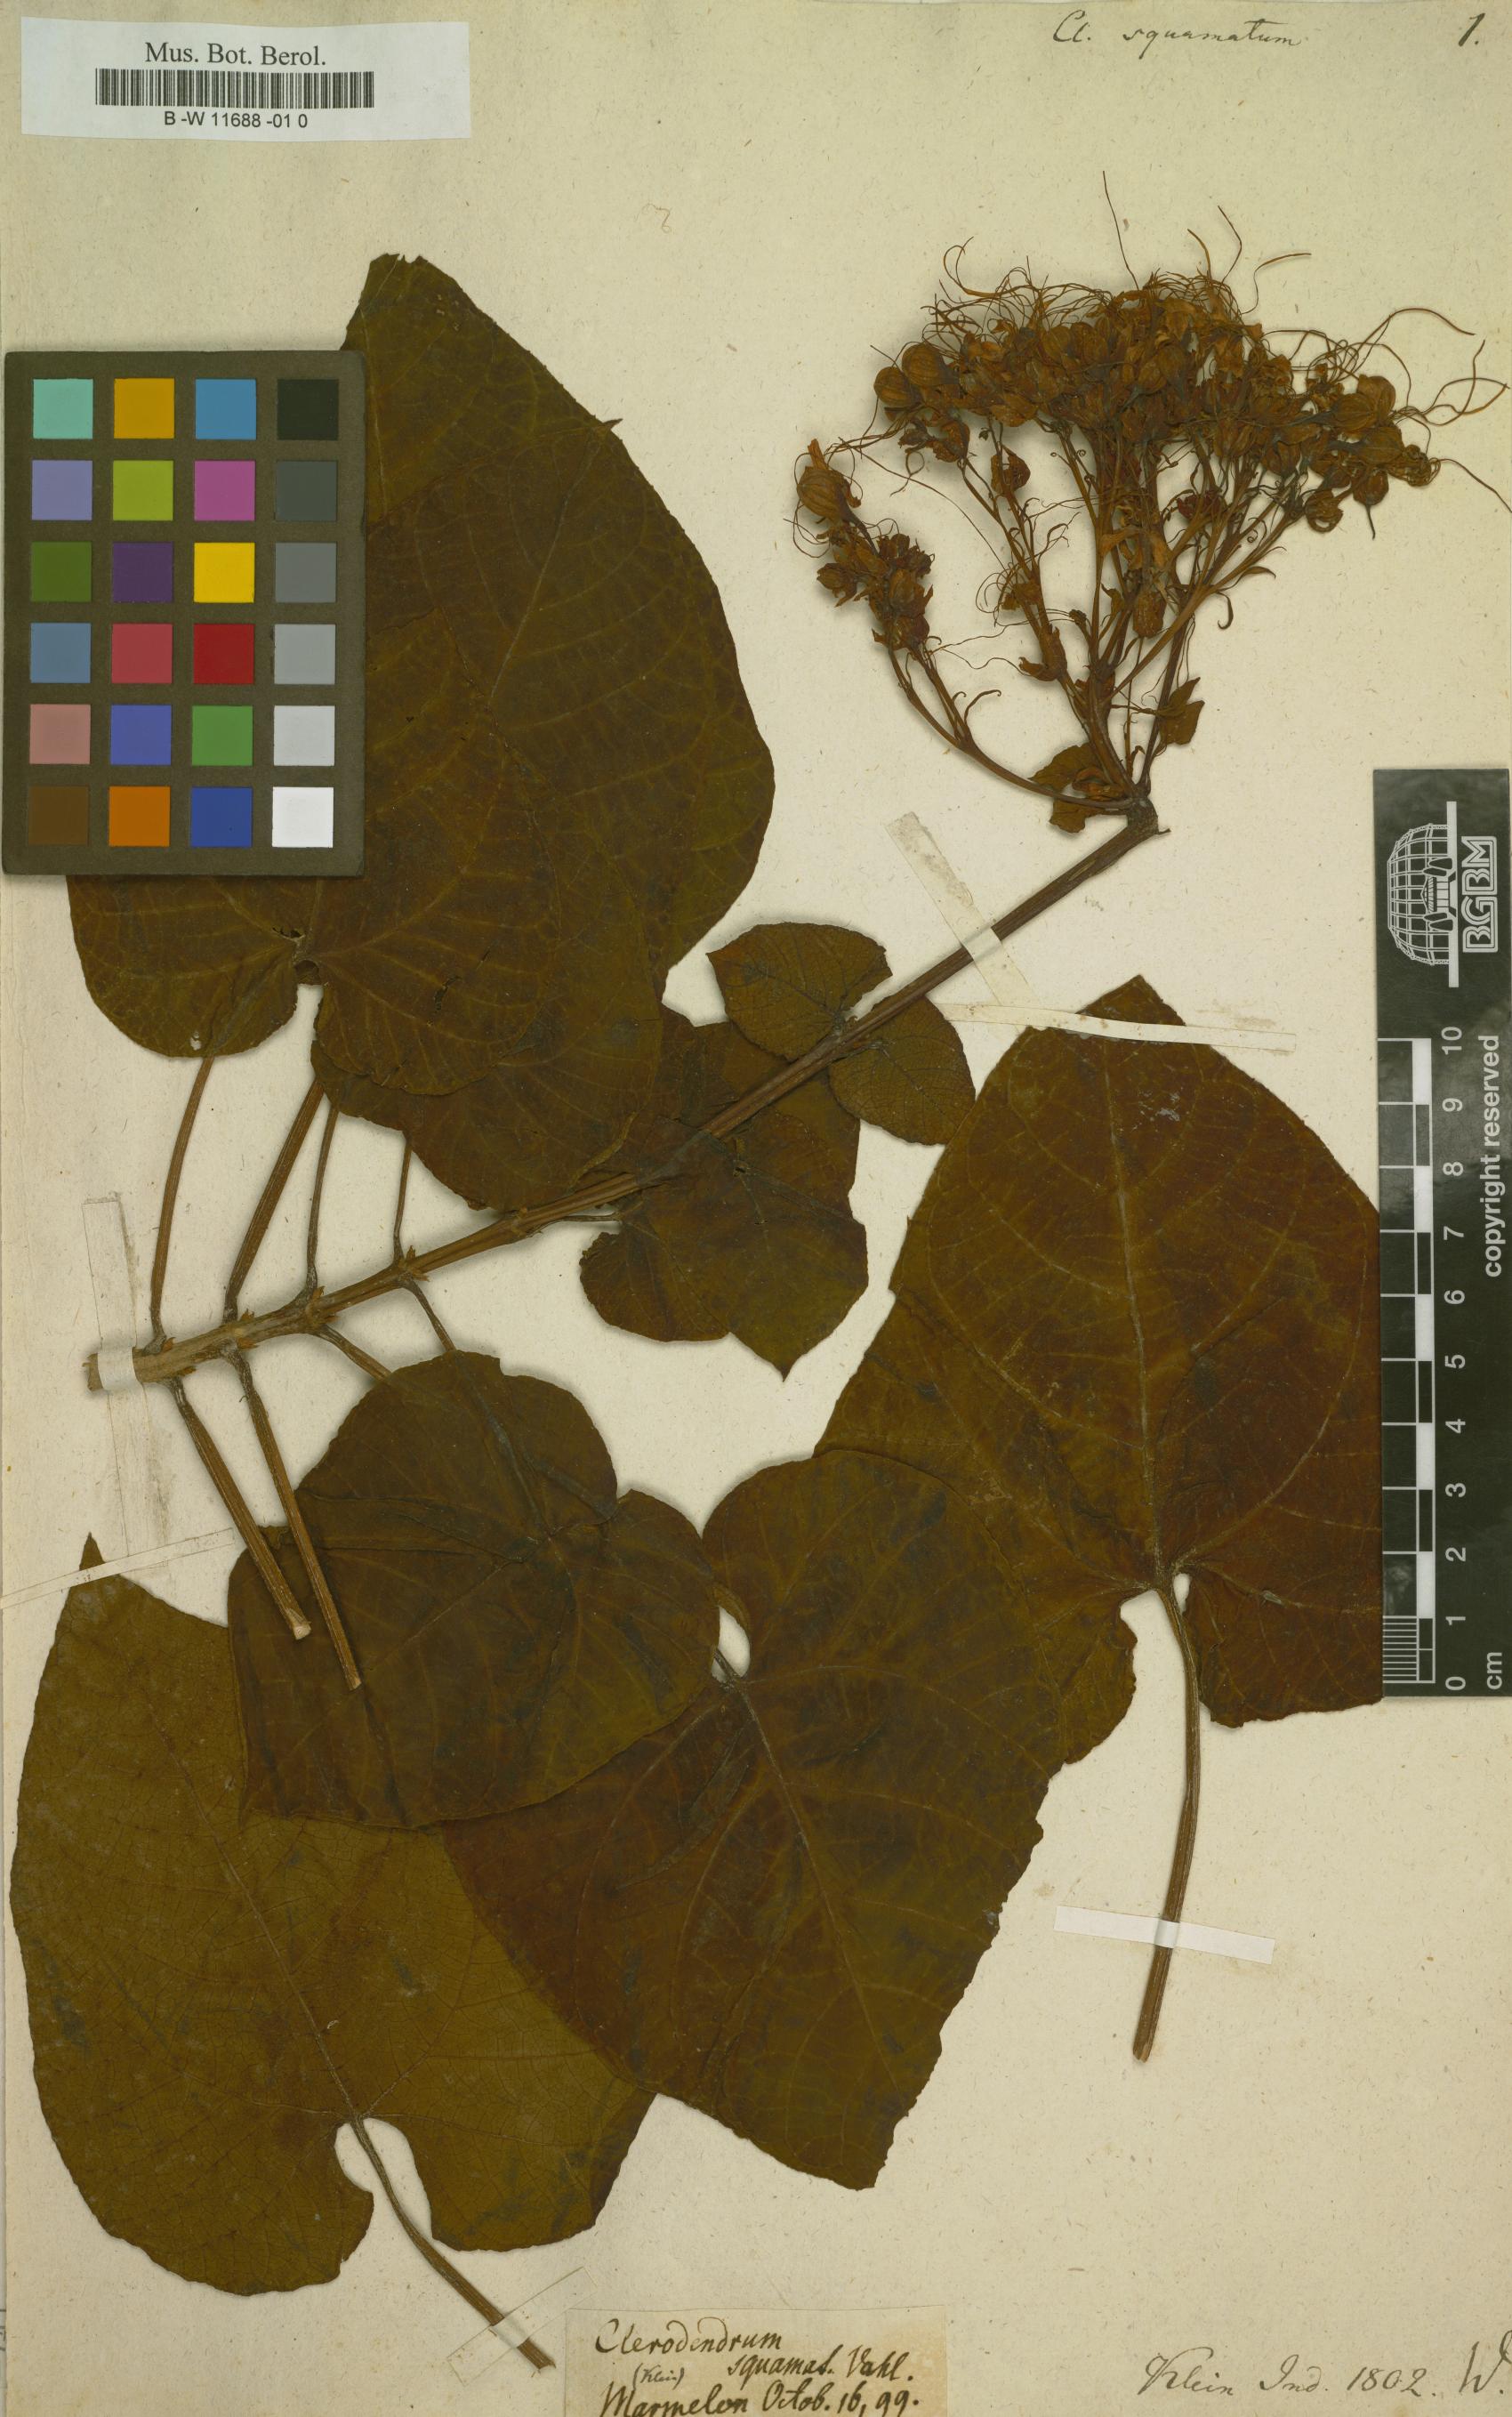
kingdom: Plantae
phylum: Tracheophyta
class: Magnoliopsida
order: Lamiales
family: Lamiaceae
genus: Clerodendrum
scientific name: Clerodendrum japonicum
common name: Japanese glorybower
